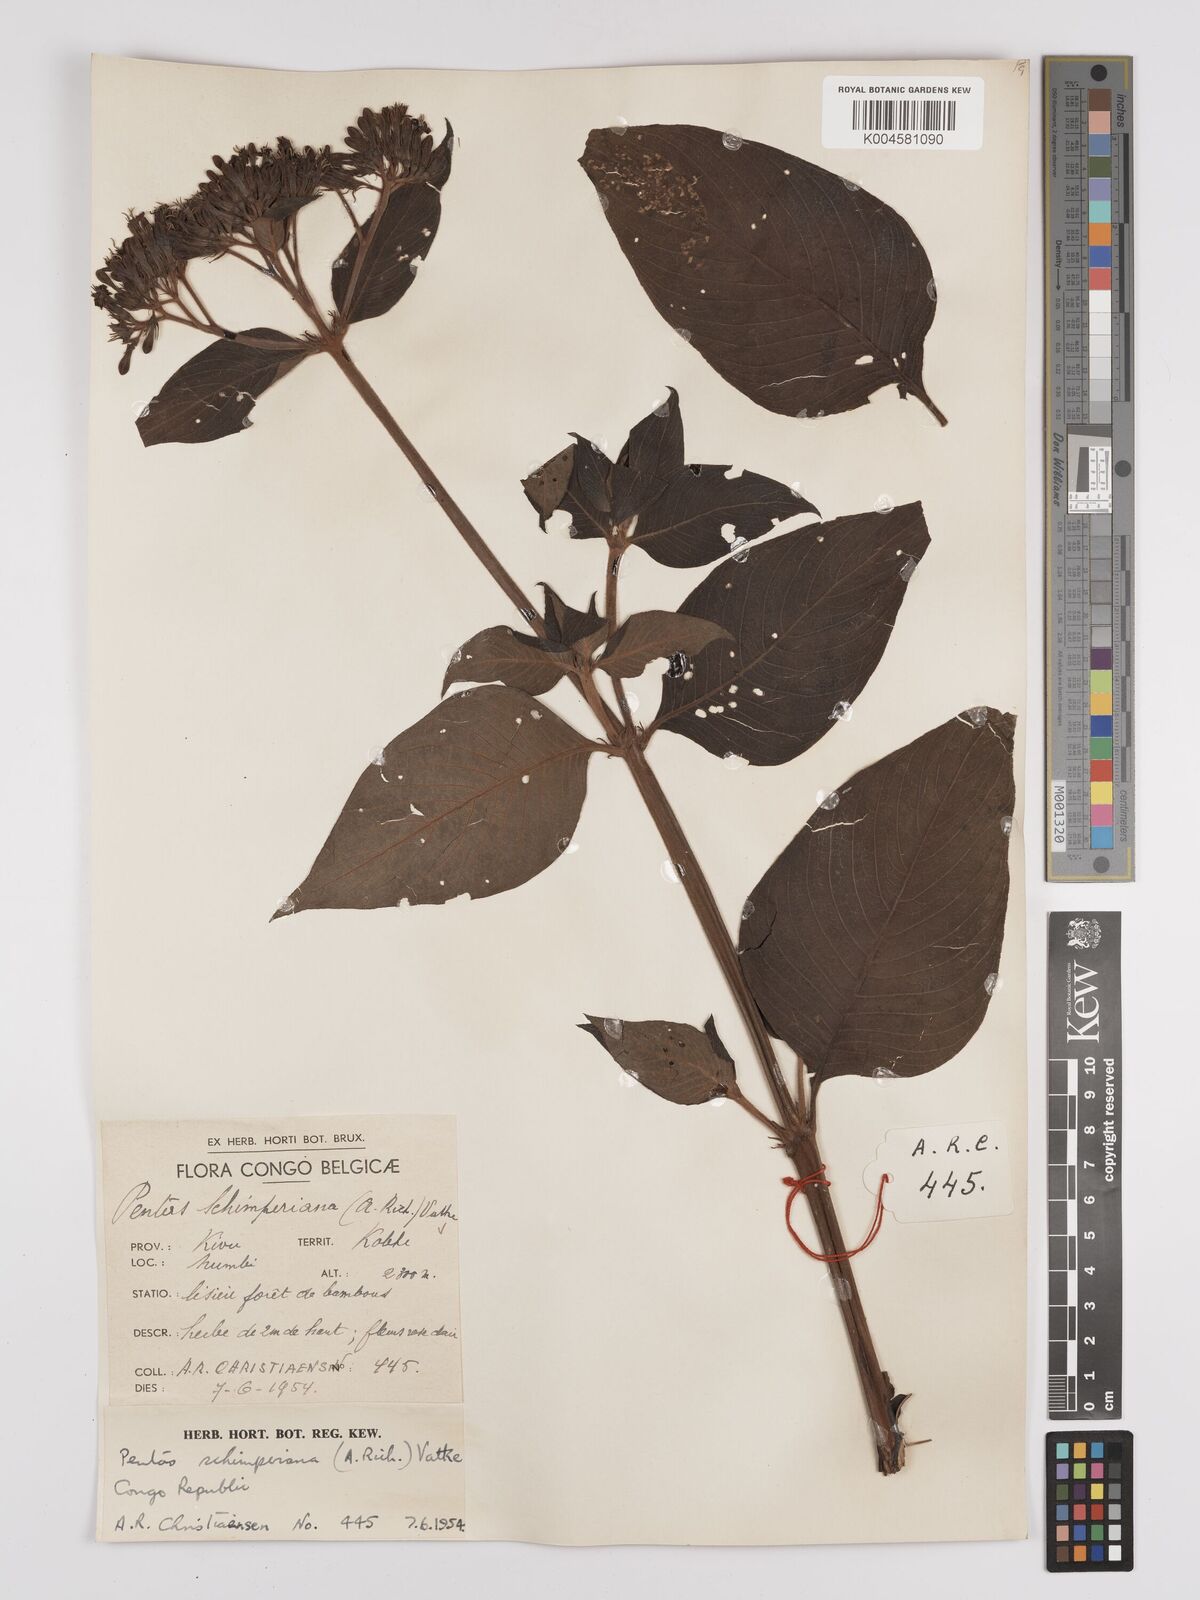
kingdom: Plantae
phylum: Tracheophyta
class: Magnoliopsida
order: Gentianales
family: Rubiaceae
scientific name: Rubiaceae
